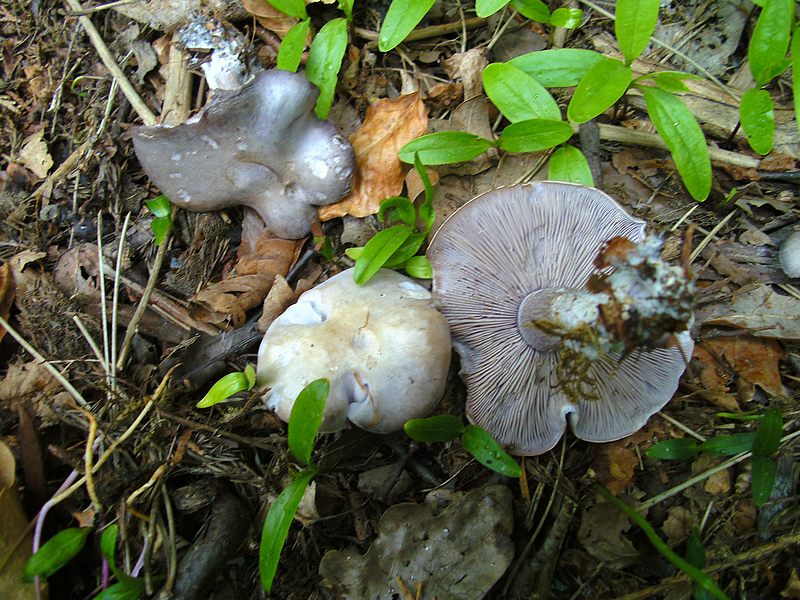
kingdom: Fungi
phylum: Basidiomycota
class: Agaricomycetes
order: Agaricales
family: Tricholomataceae
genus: Lepista
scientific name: Lepista nuda
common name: violet hekseringshat
